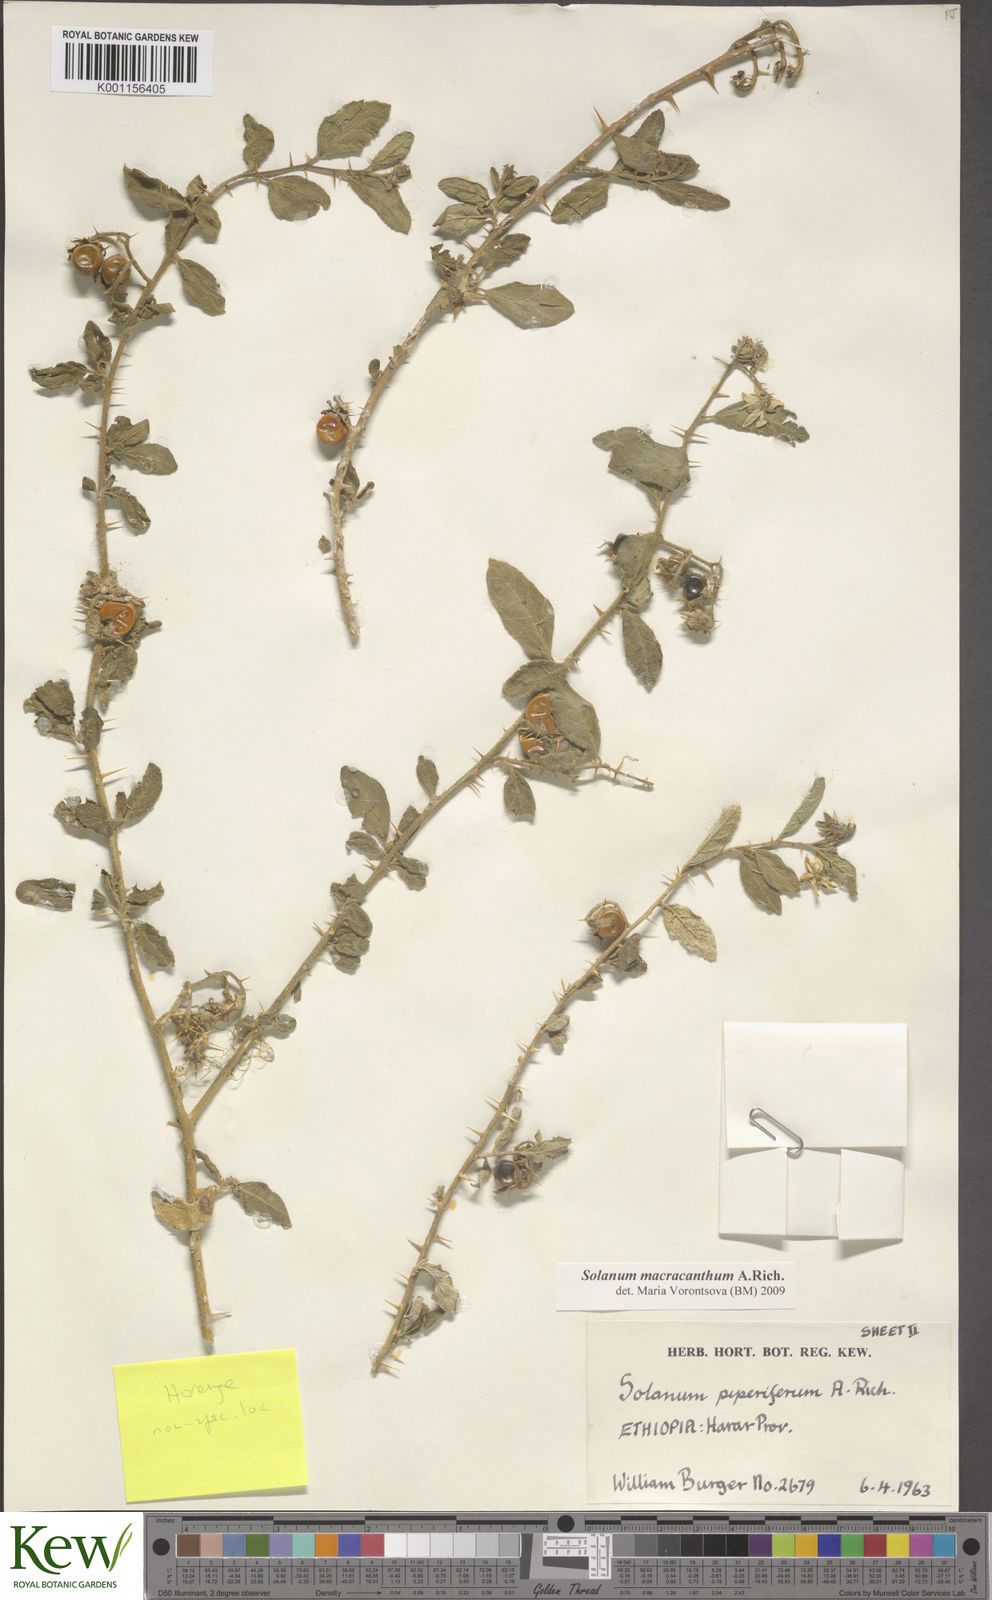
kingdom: Plantae
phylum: Tracheophyta
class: Magnoliopsida
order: Solanales
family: Solanaceae
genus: Solanum
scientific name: Solanum macracanthum
